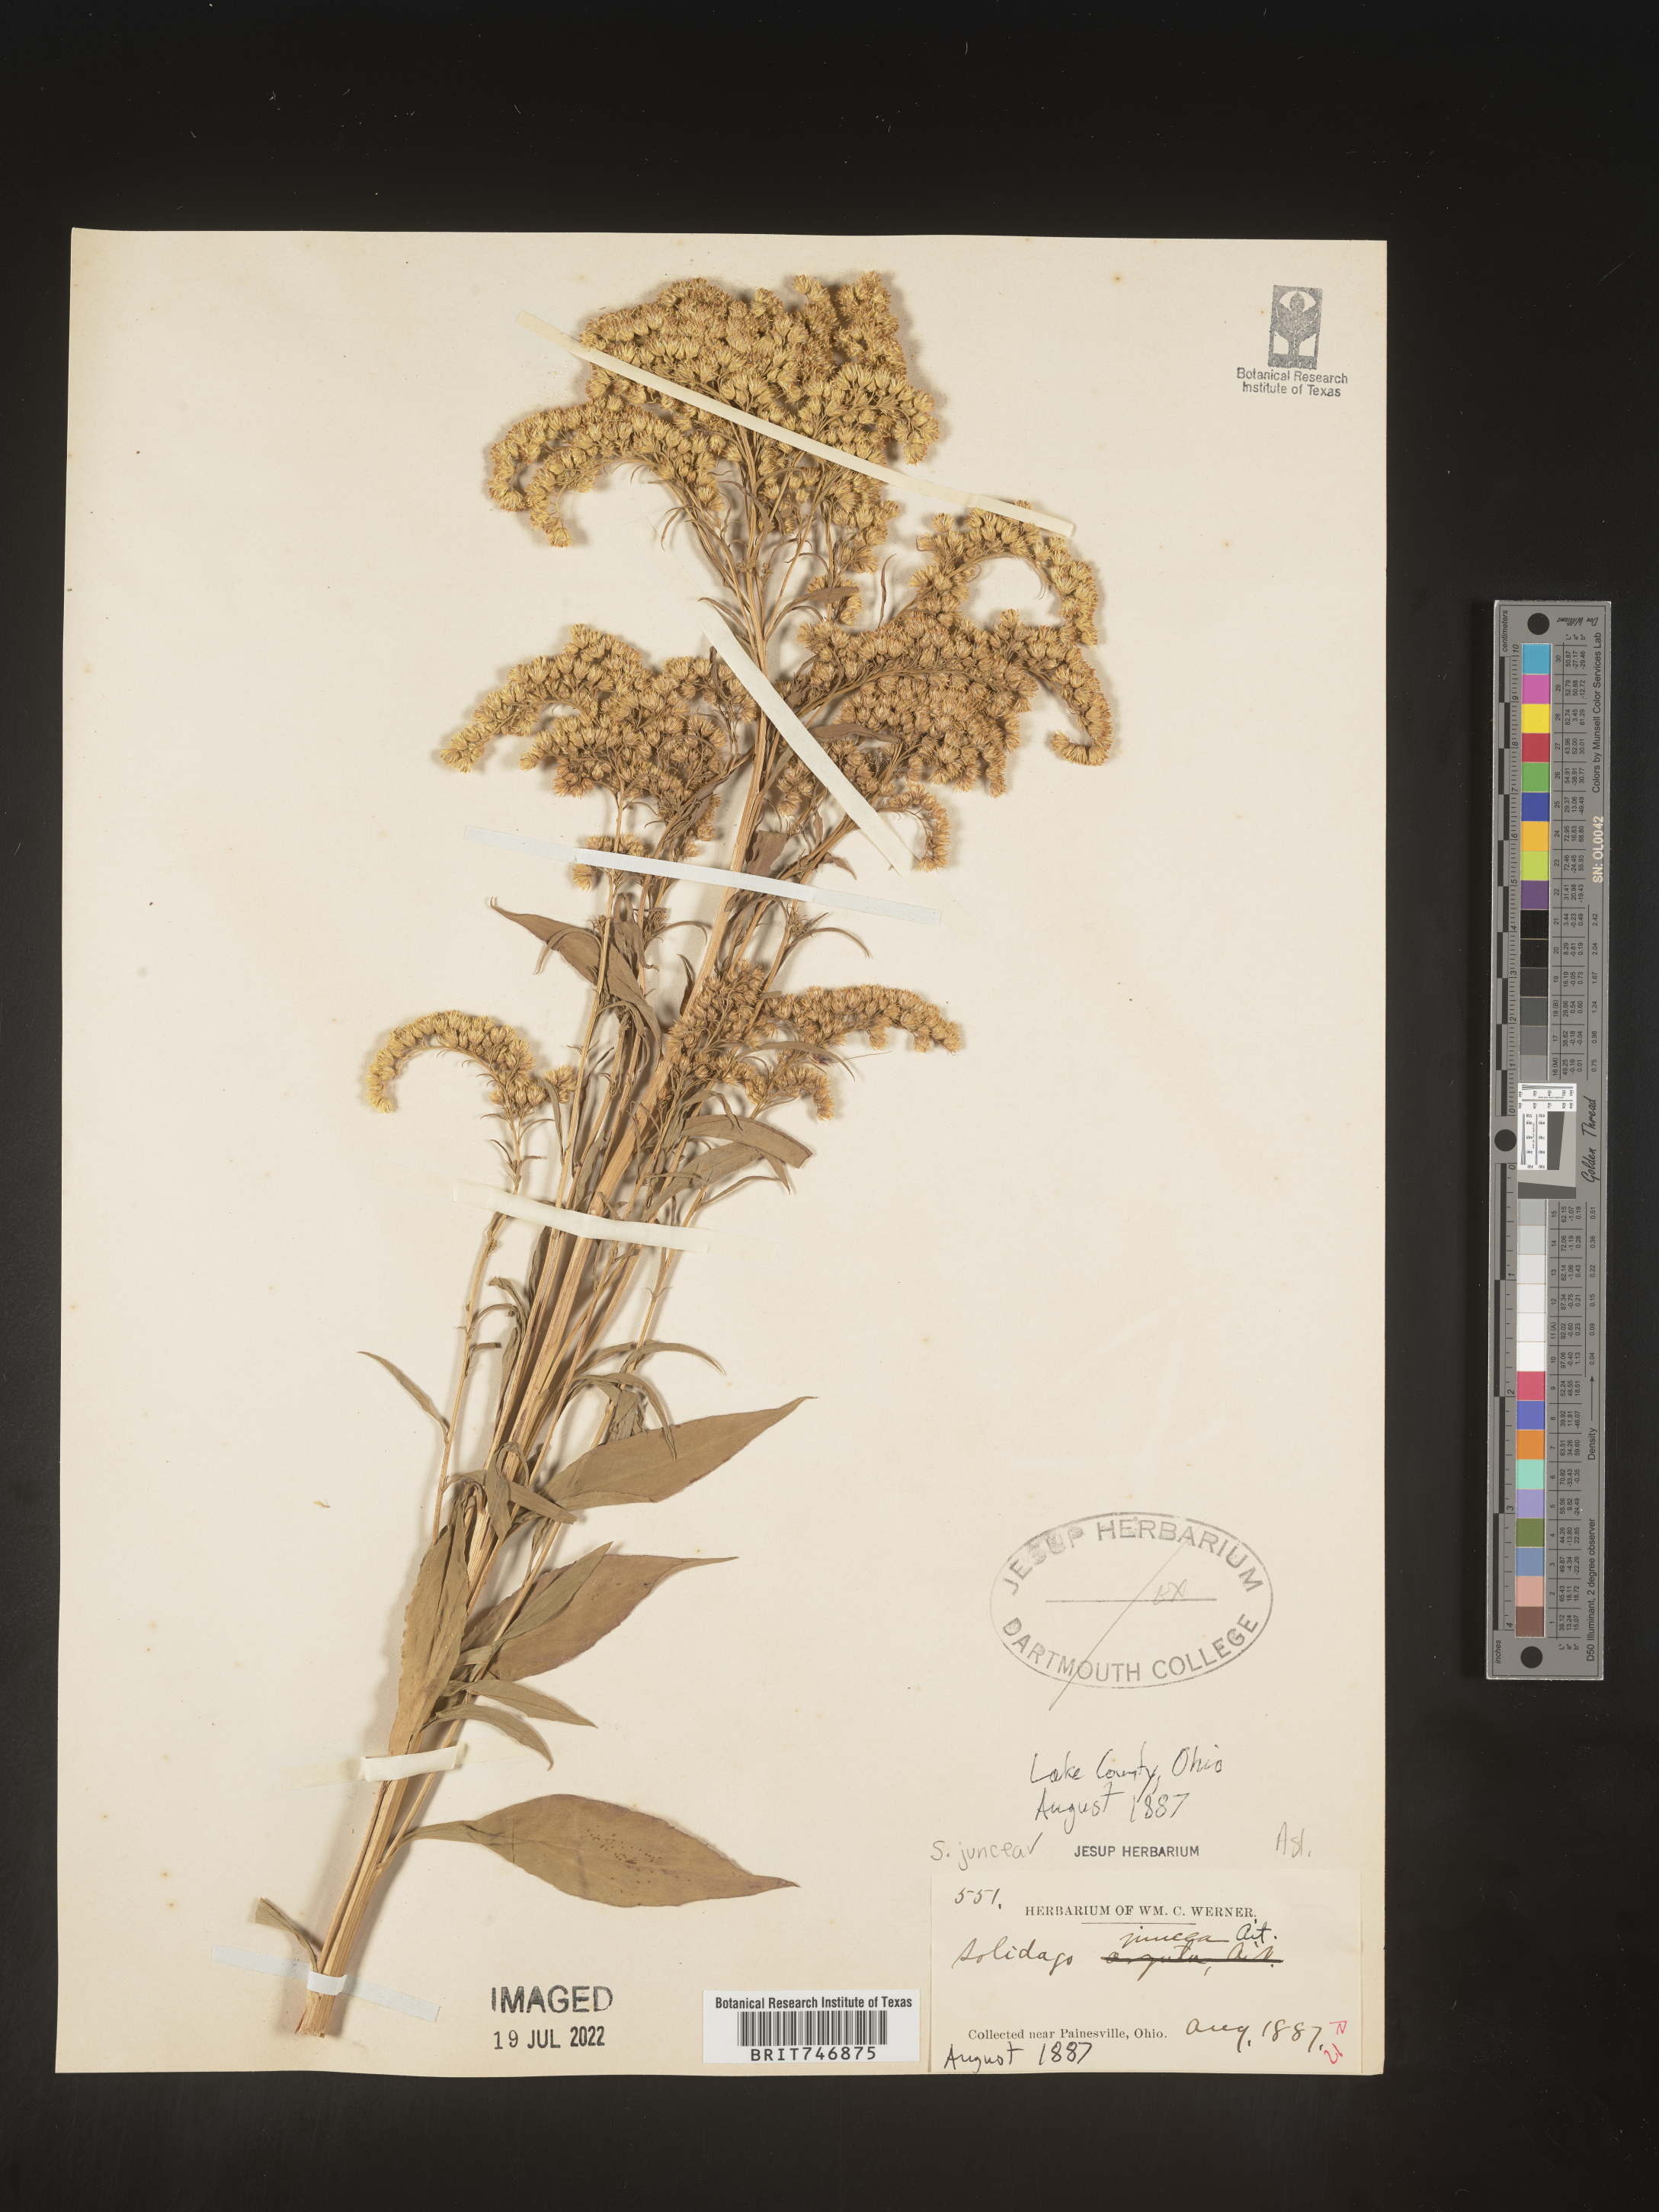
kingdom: Plantae
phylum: Tracheophyta
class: Magnoliopsida
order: Asterales
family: Asteraceae
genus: Solidago
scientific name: Solidago juncea
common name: Early goldenrod
